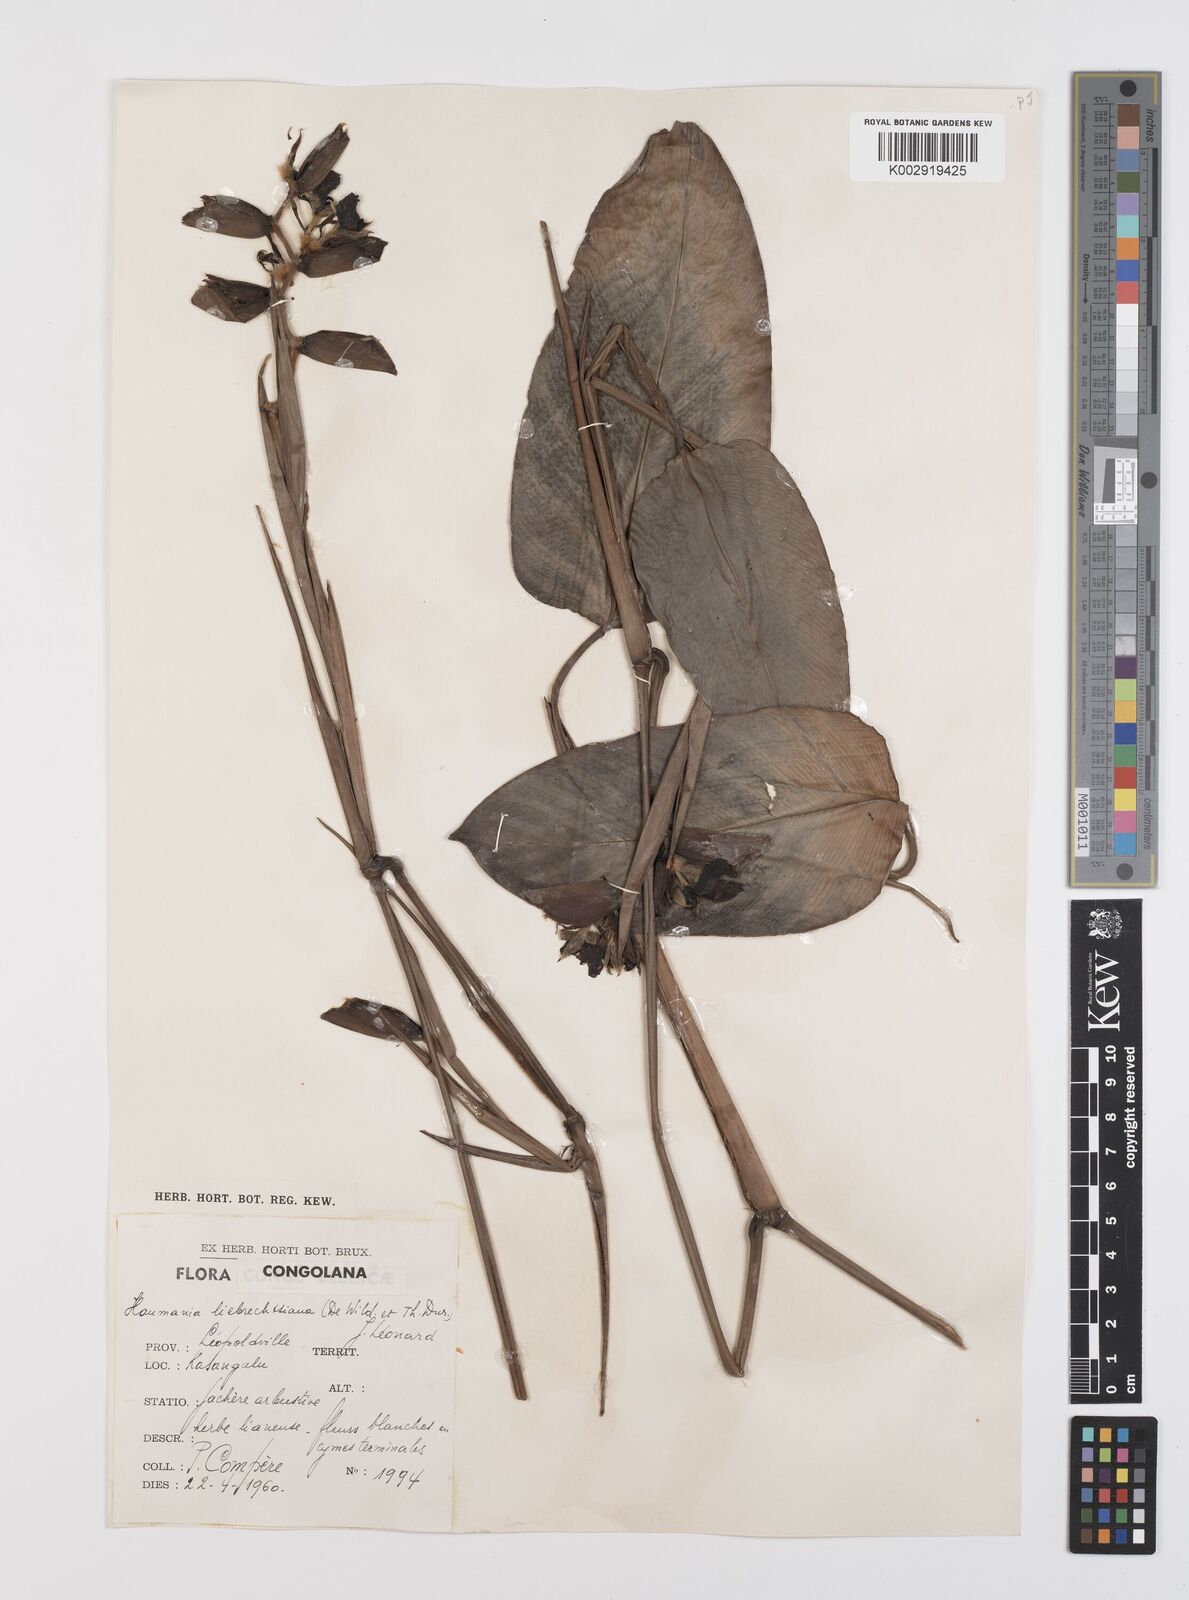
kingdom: Plantae
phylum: Tracheophyta
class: Liliopsida
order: Zingiberales
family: Marantaceae
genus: Haumania
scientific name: Haumania liebrechtsiana
